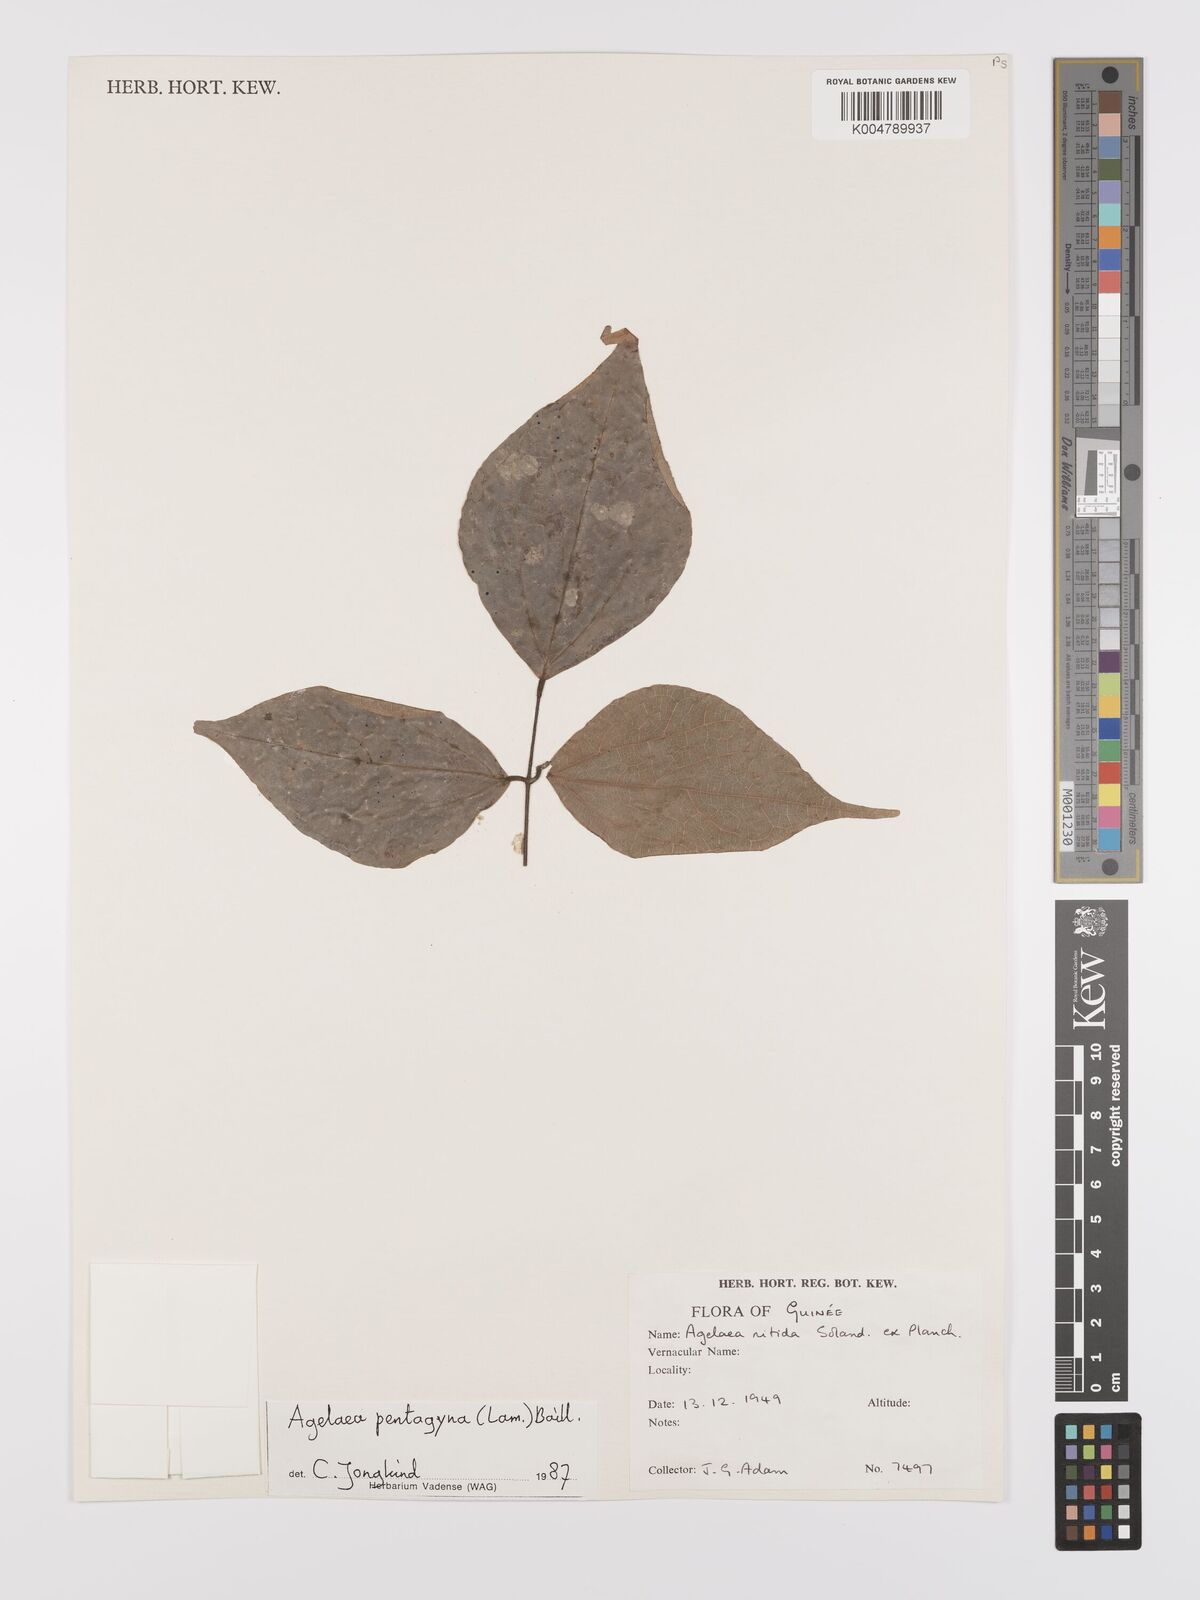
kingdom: Plantae
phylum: Tracheophyta
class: Magnoliopsida
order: Oxalidales
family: Connaraceae
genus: Agelaea
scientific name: Agelaea pentagyna
